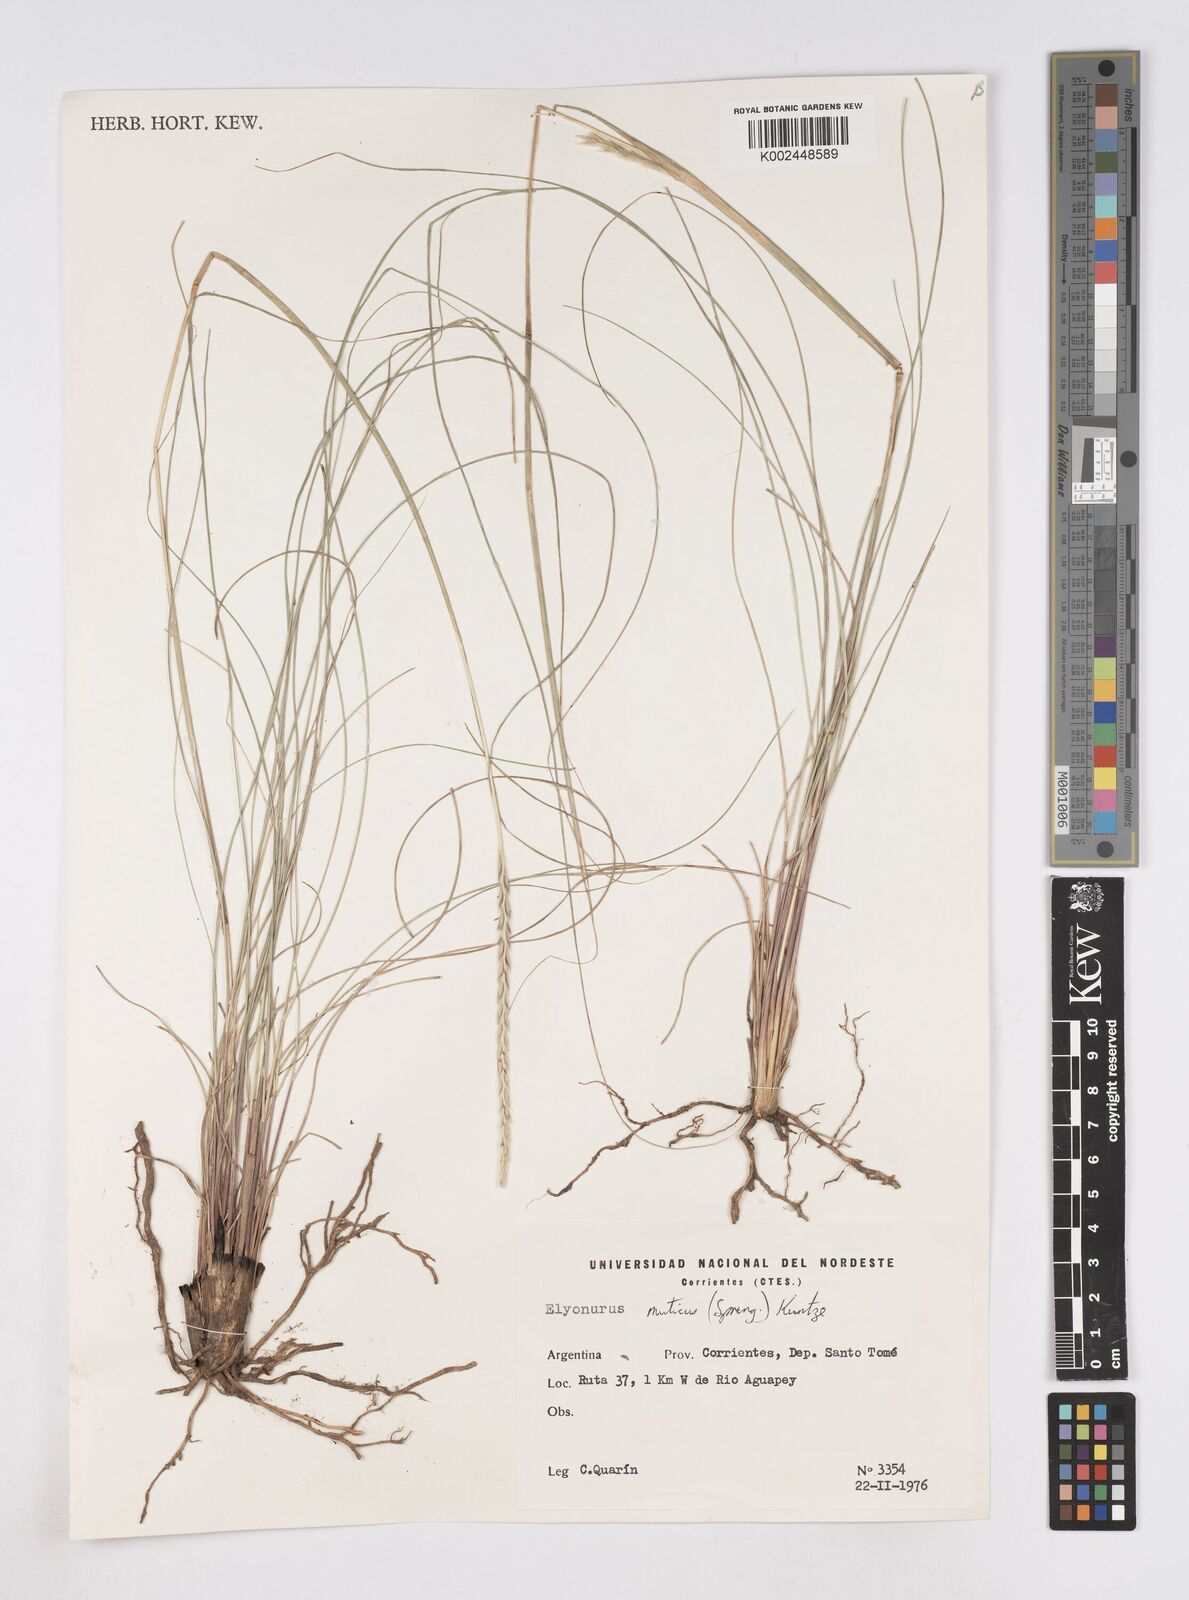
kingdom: Plantae
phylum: Tracheophyta
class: Liliopsida
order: Poales
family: Poaceae
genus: Elionurus
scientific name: Elionurus muticus
